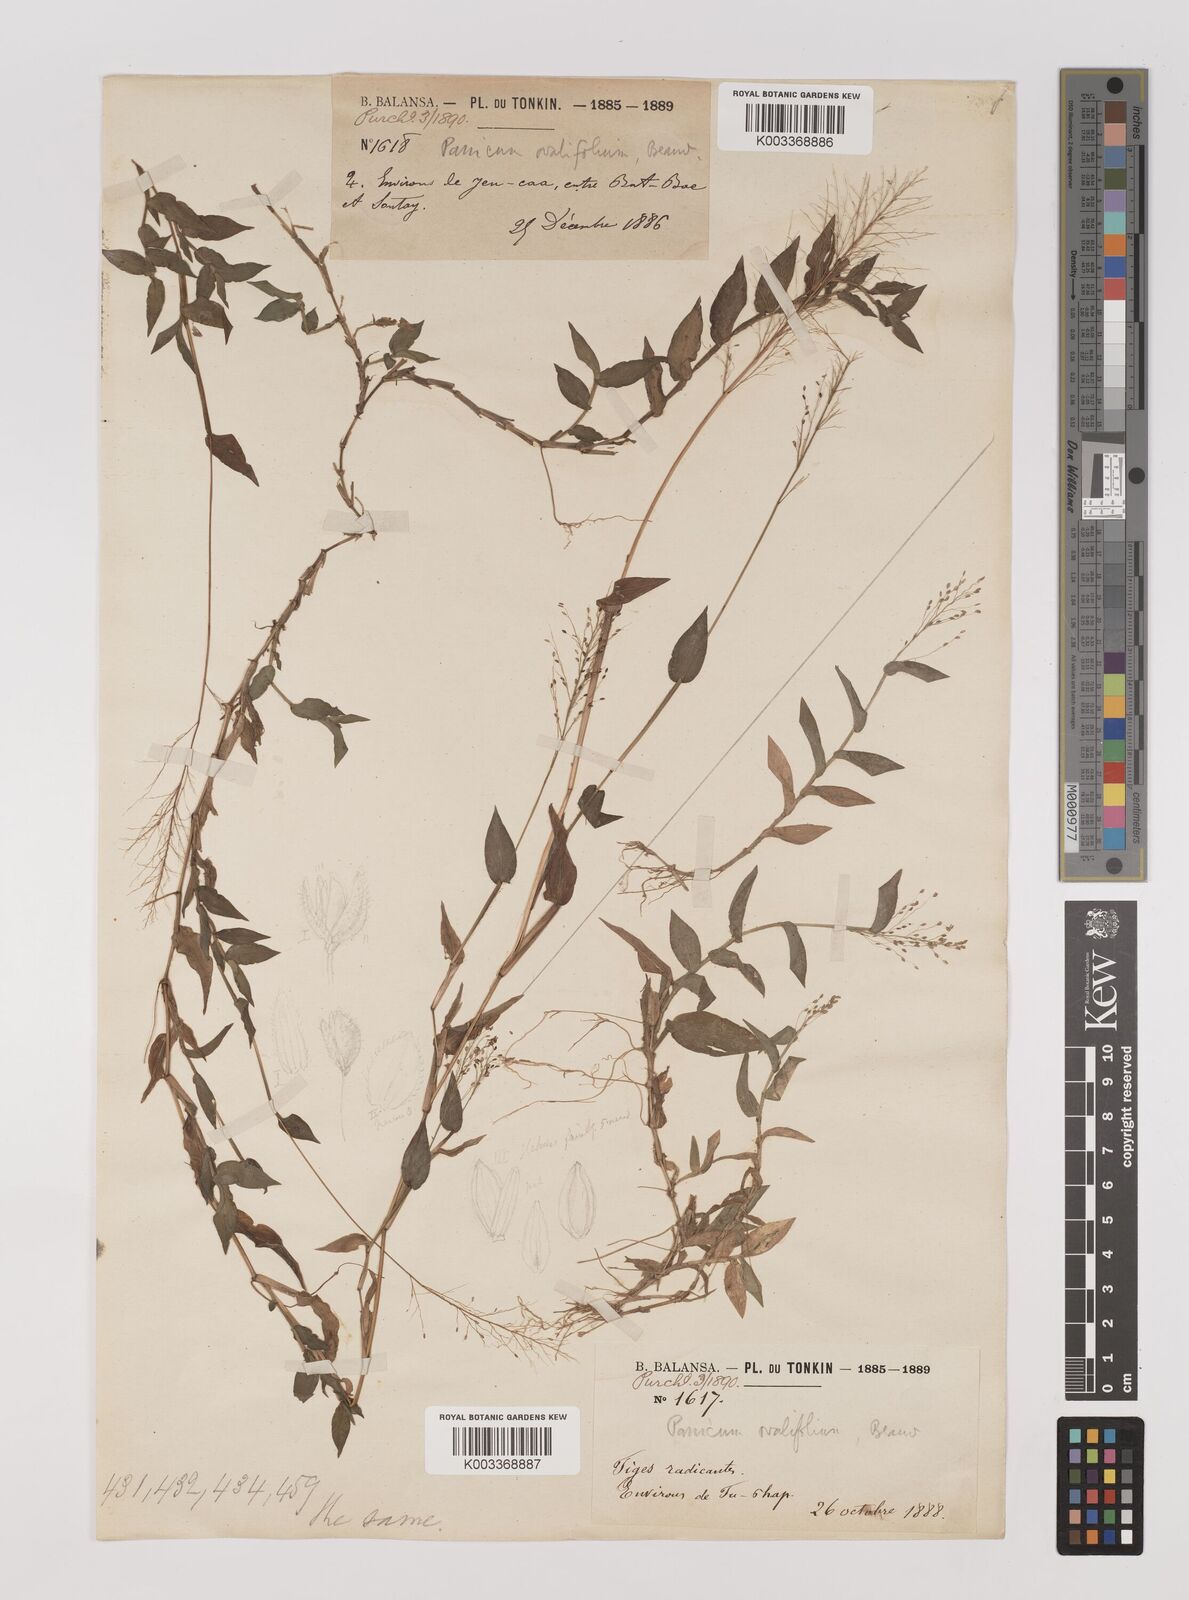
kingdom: Plantae
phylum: Tracheophyta
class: Liliopsida
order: Poales
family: Poaceae
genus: Panicum
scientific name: Panicum brevifolium
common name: Shortleaf panic grass
